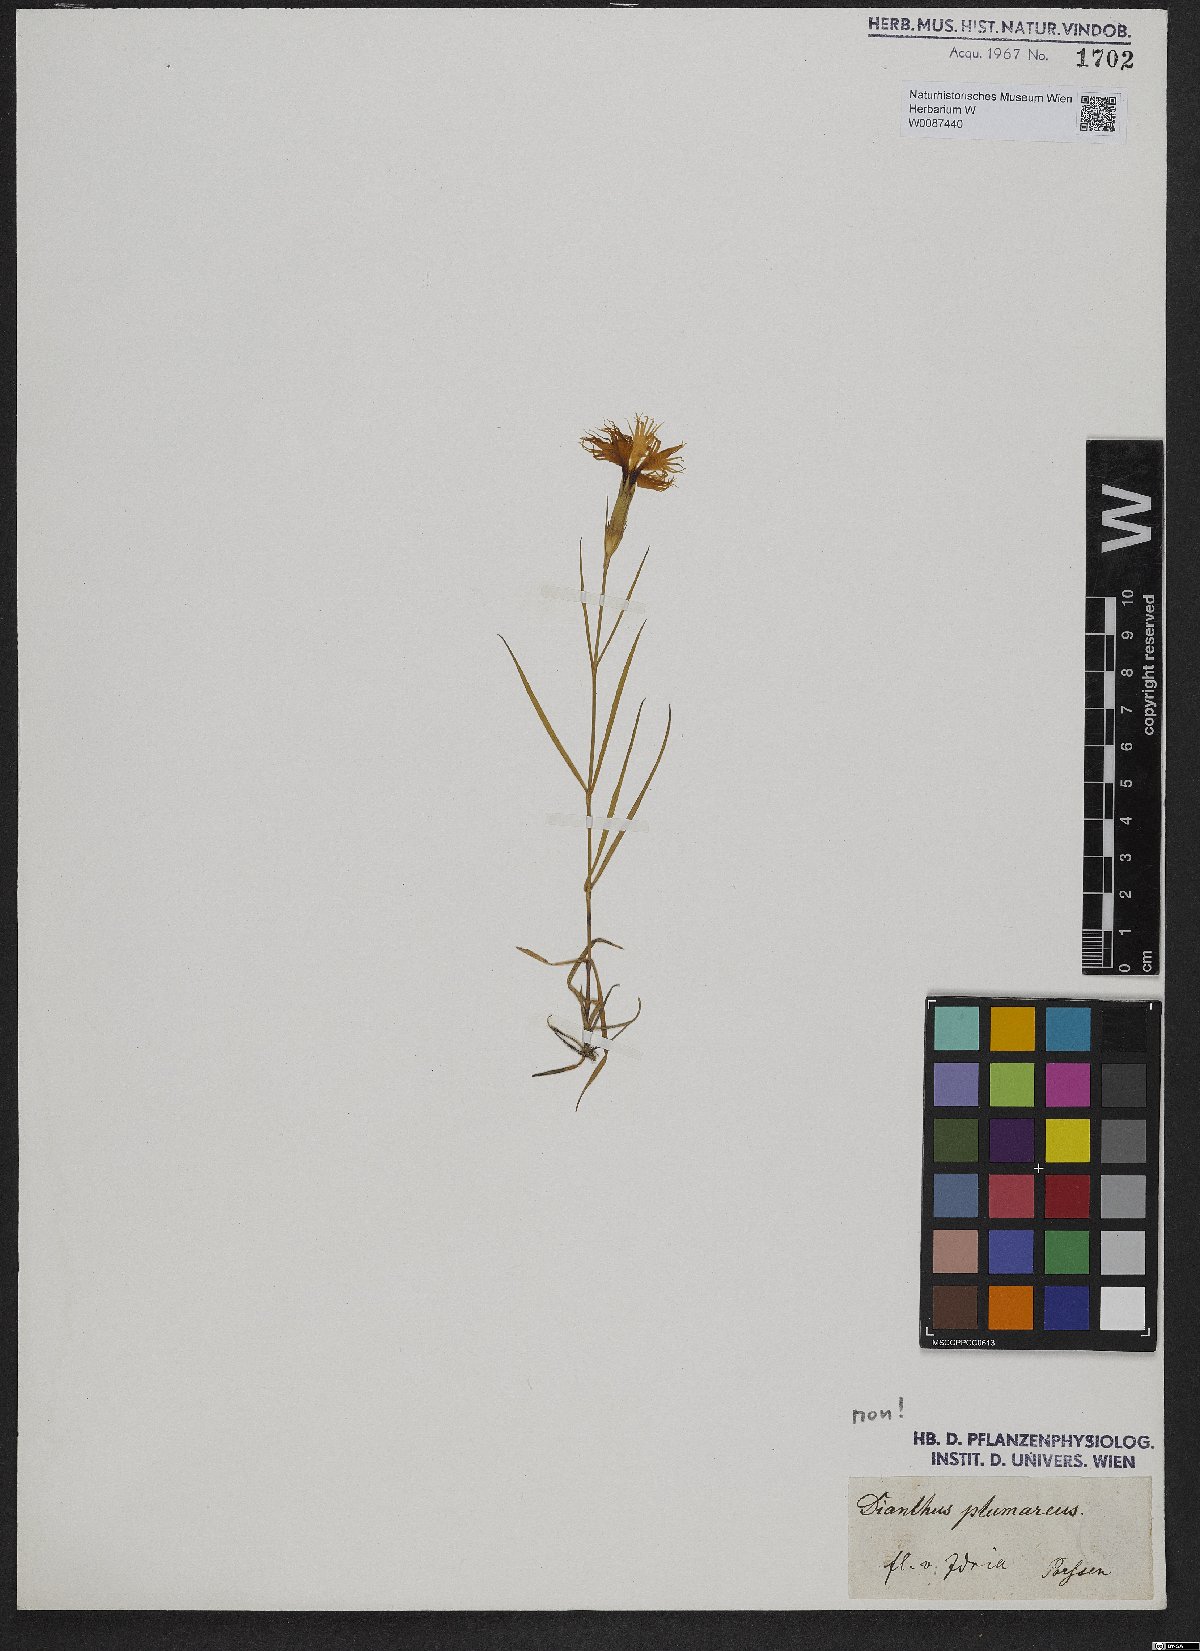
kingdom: Plantae
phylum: Tracheophyta
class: Magnoliopsida
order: Caryophyllales
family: Caryophyllaceae
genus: Dianthus
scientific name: Dianthus
